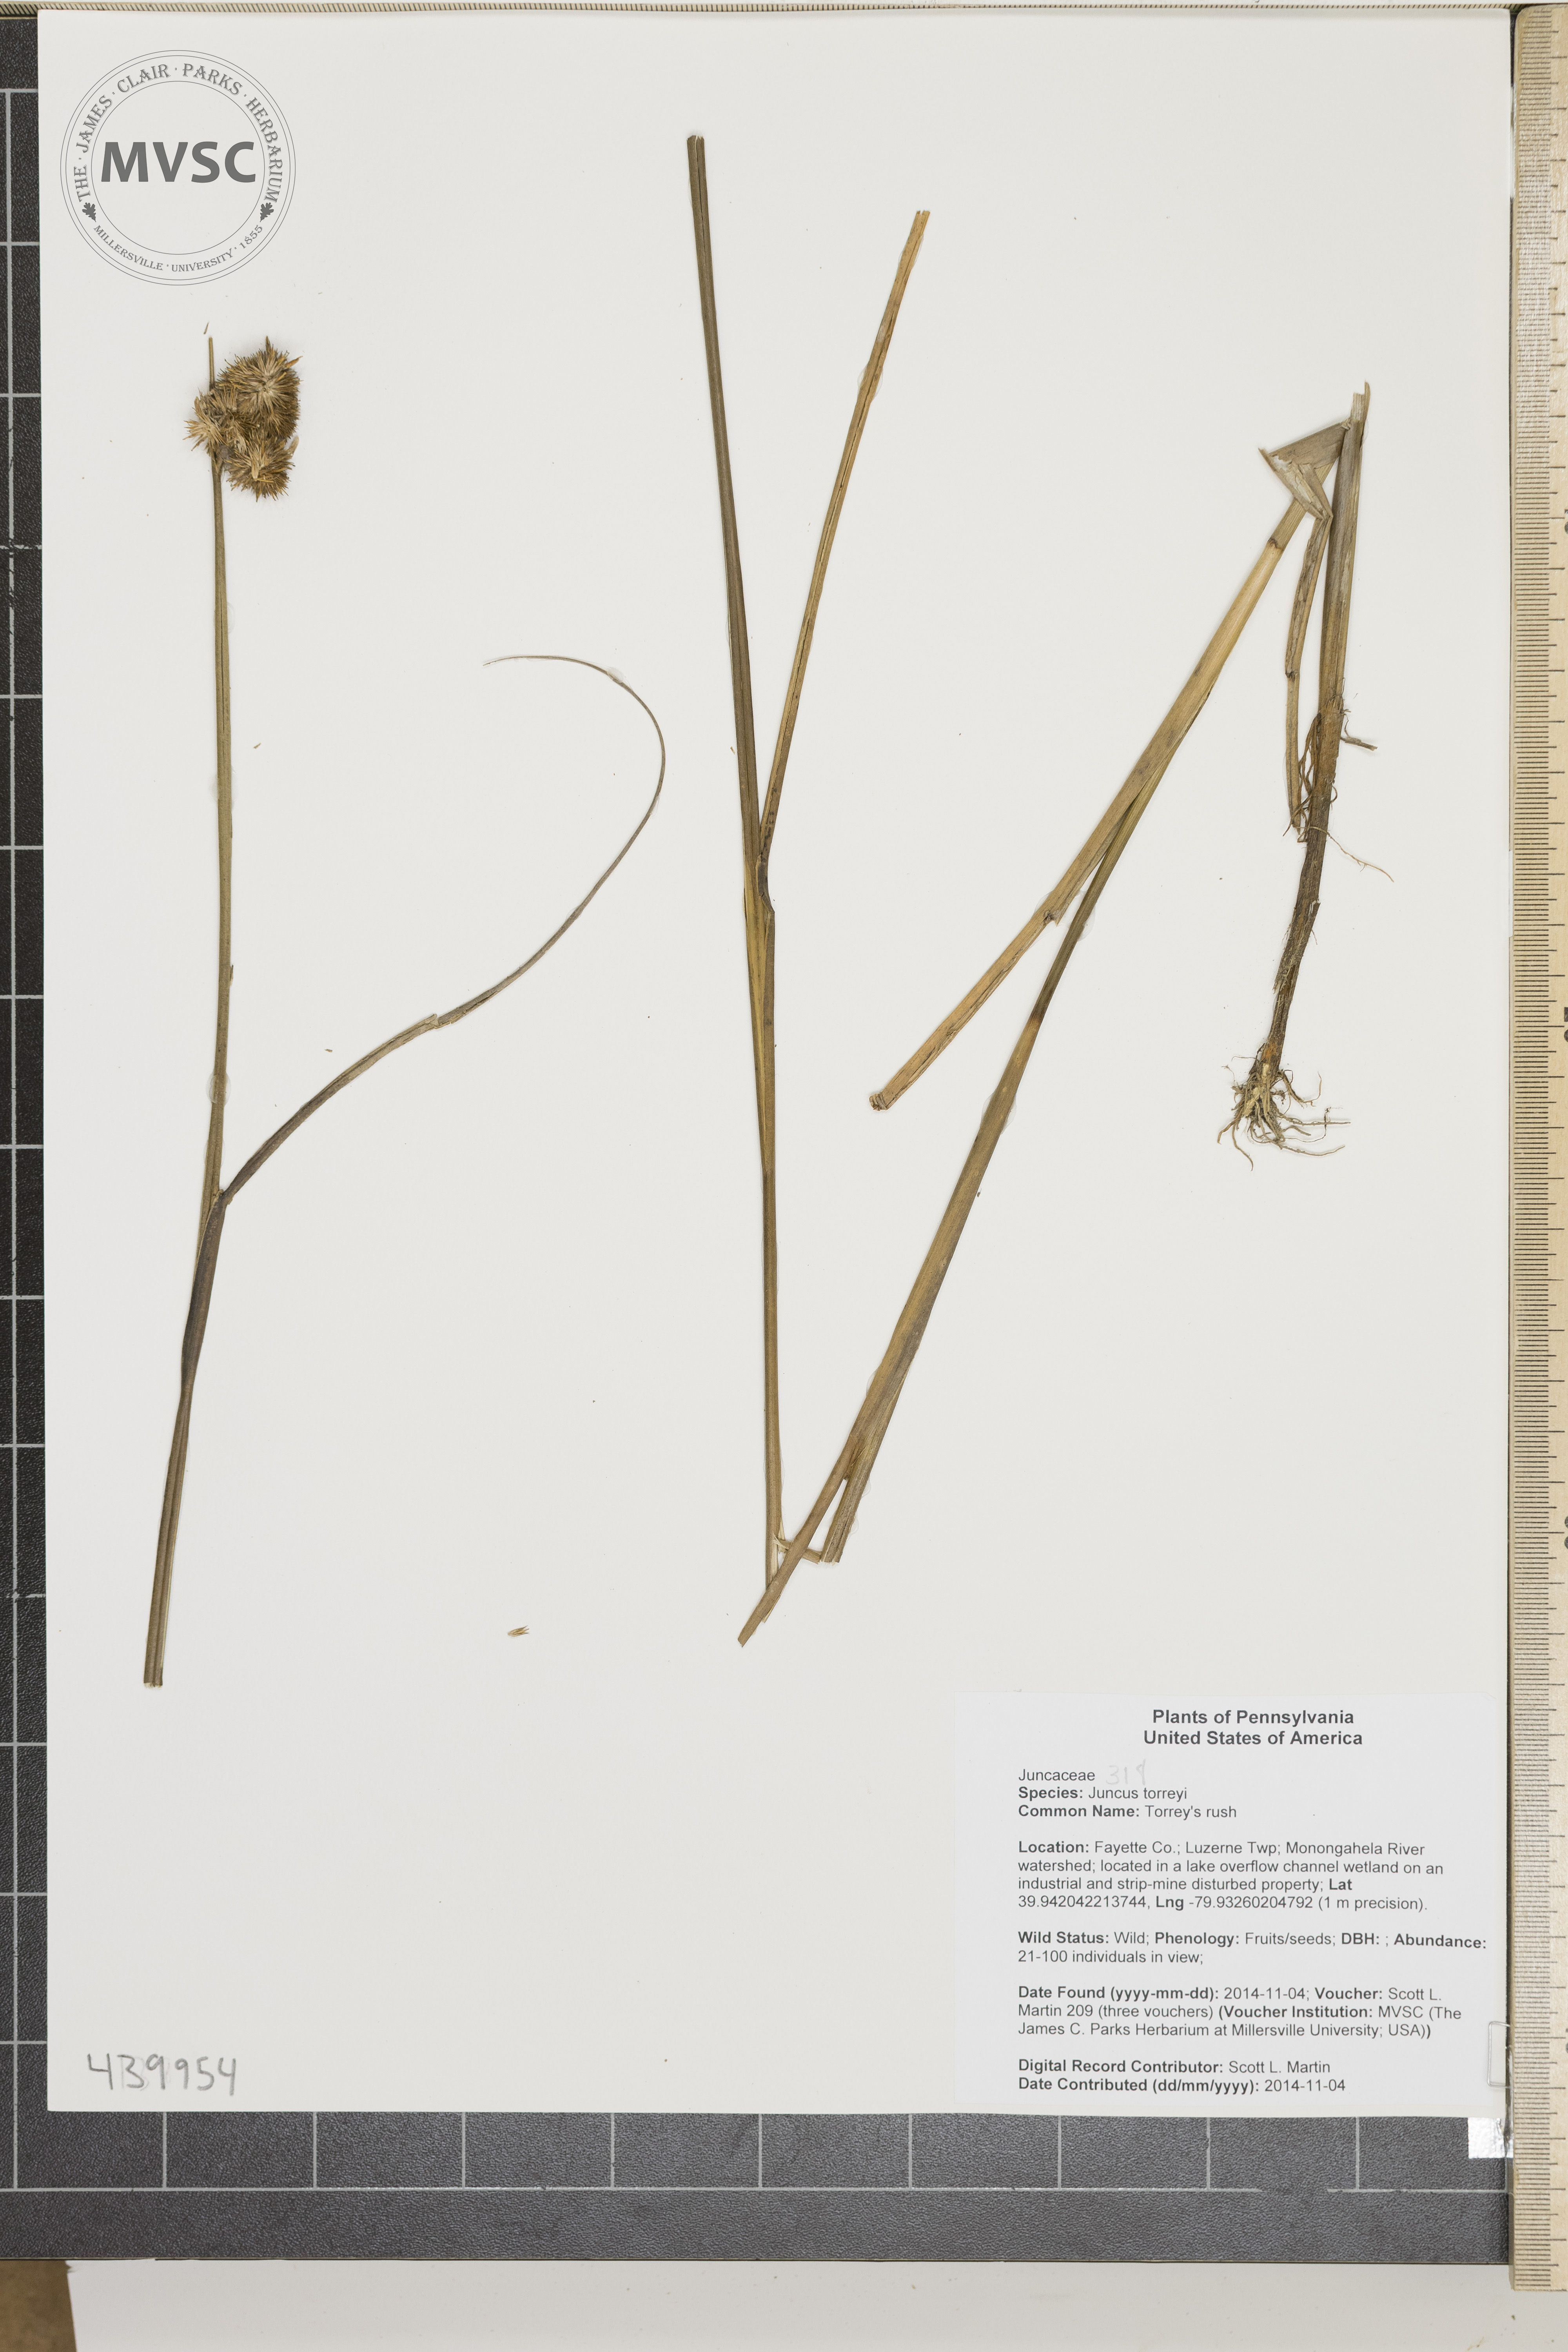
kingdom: Plantae
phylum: Tracheophyta
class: Liliopsida
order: Poales
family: Juncaceae
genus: Juncus
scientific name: Juncus torreyi
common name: Torrey's rush
